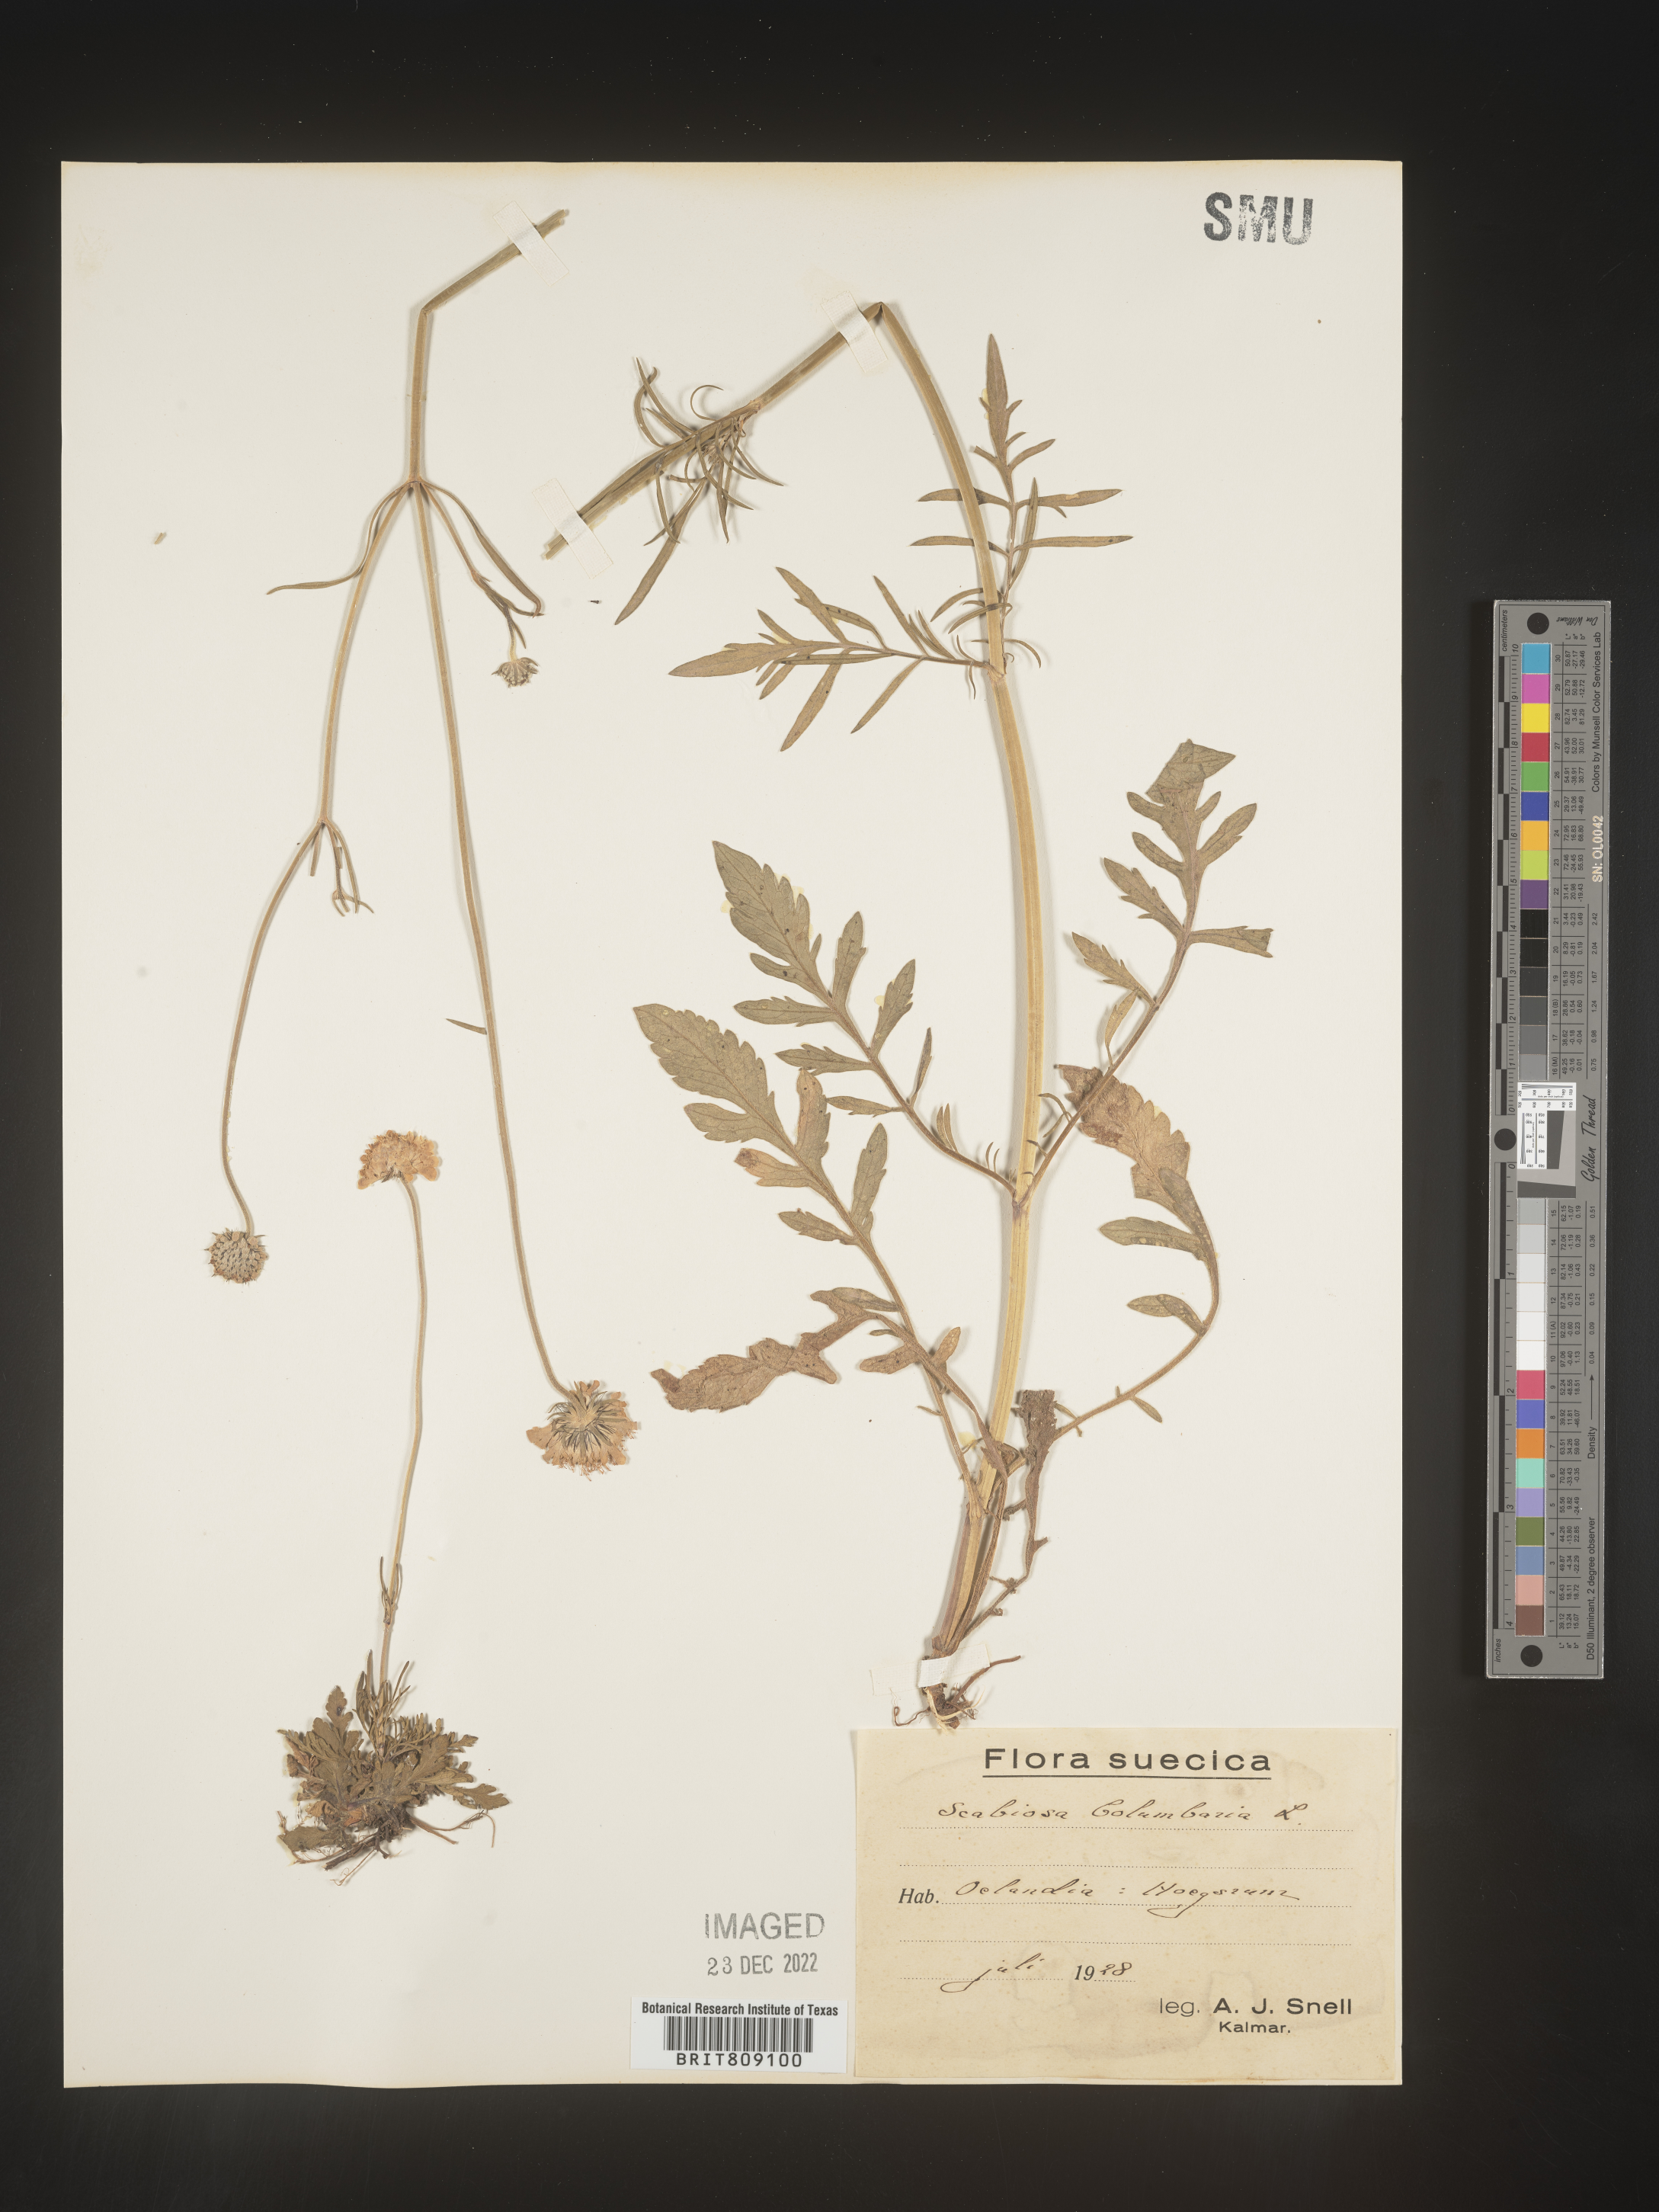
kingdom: Plantae
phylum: Tracheophyta
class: Magnoliopsida
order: Dipsacales
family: Caprifoliaceae
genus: Scabiosa
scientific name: Scabiosa
